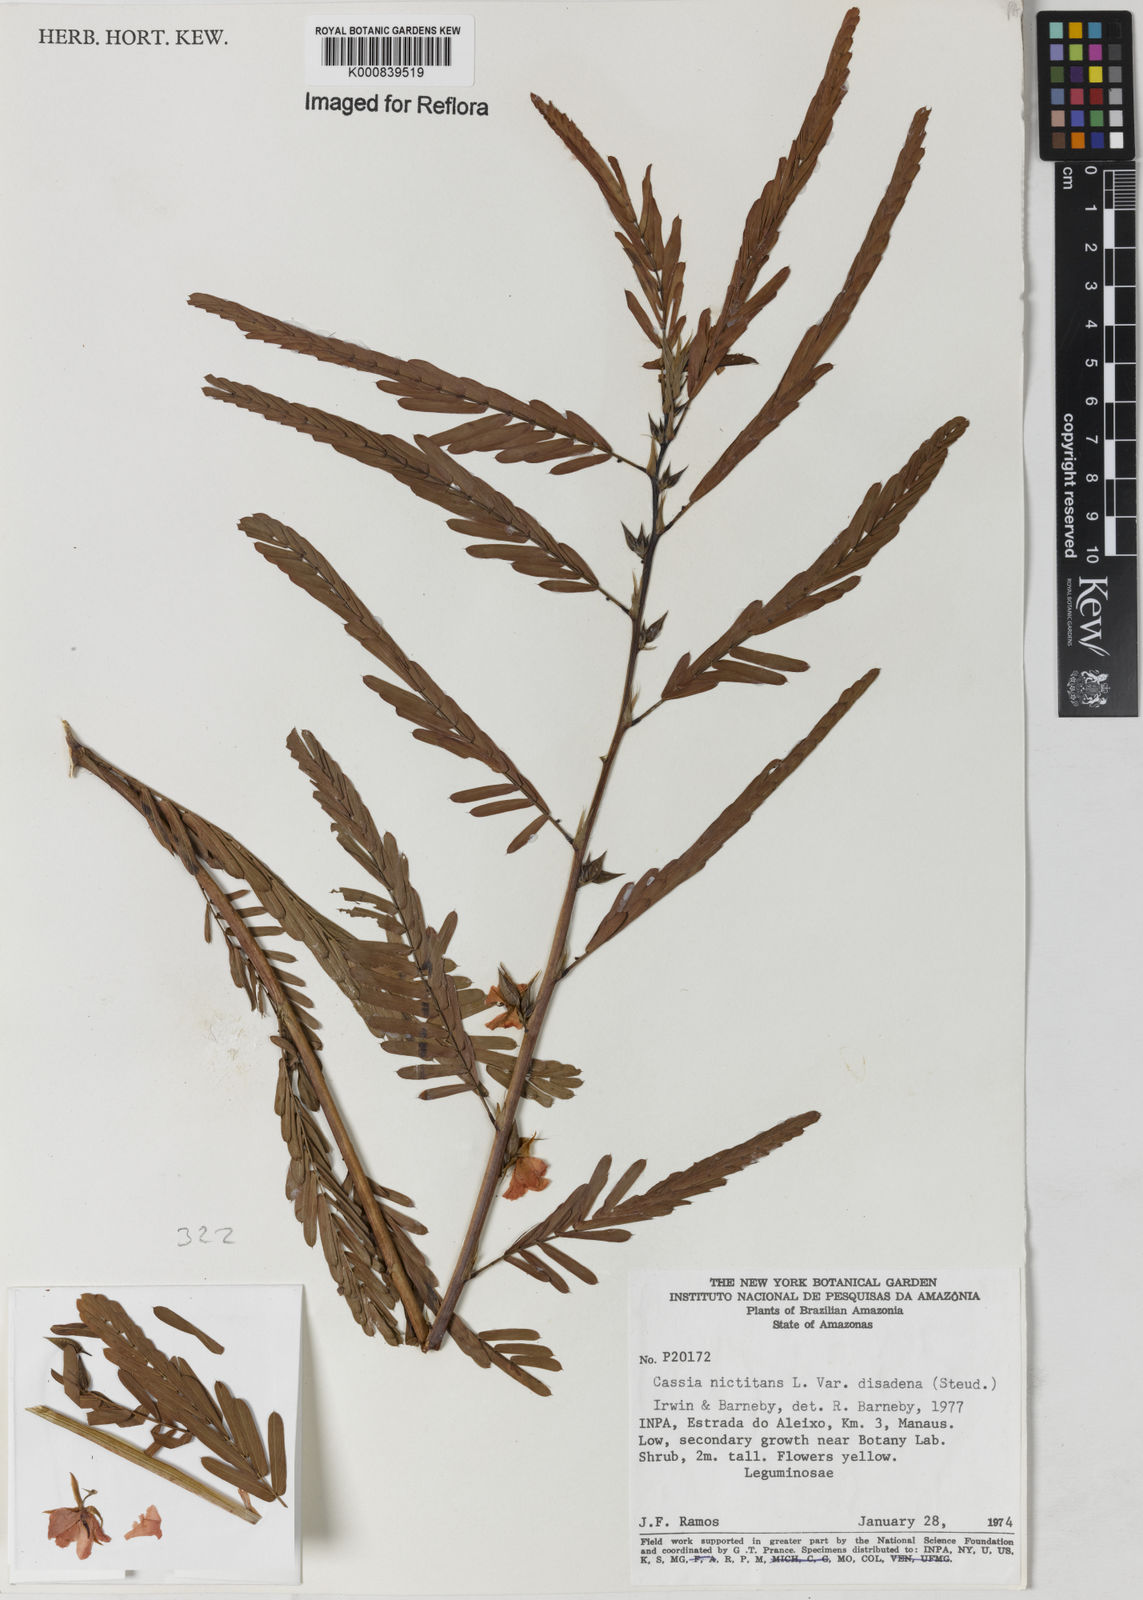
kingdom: Plantae
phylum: Tracheophyta
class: Magnoliopsida
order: Fabales
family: Fabaceae
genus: Chamaecrista
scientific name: Chamaecrista nictitans
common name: Sensitive cassia
